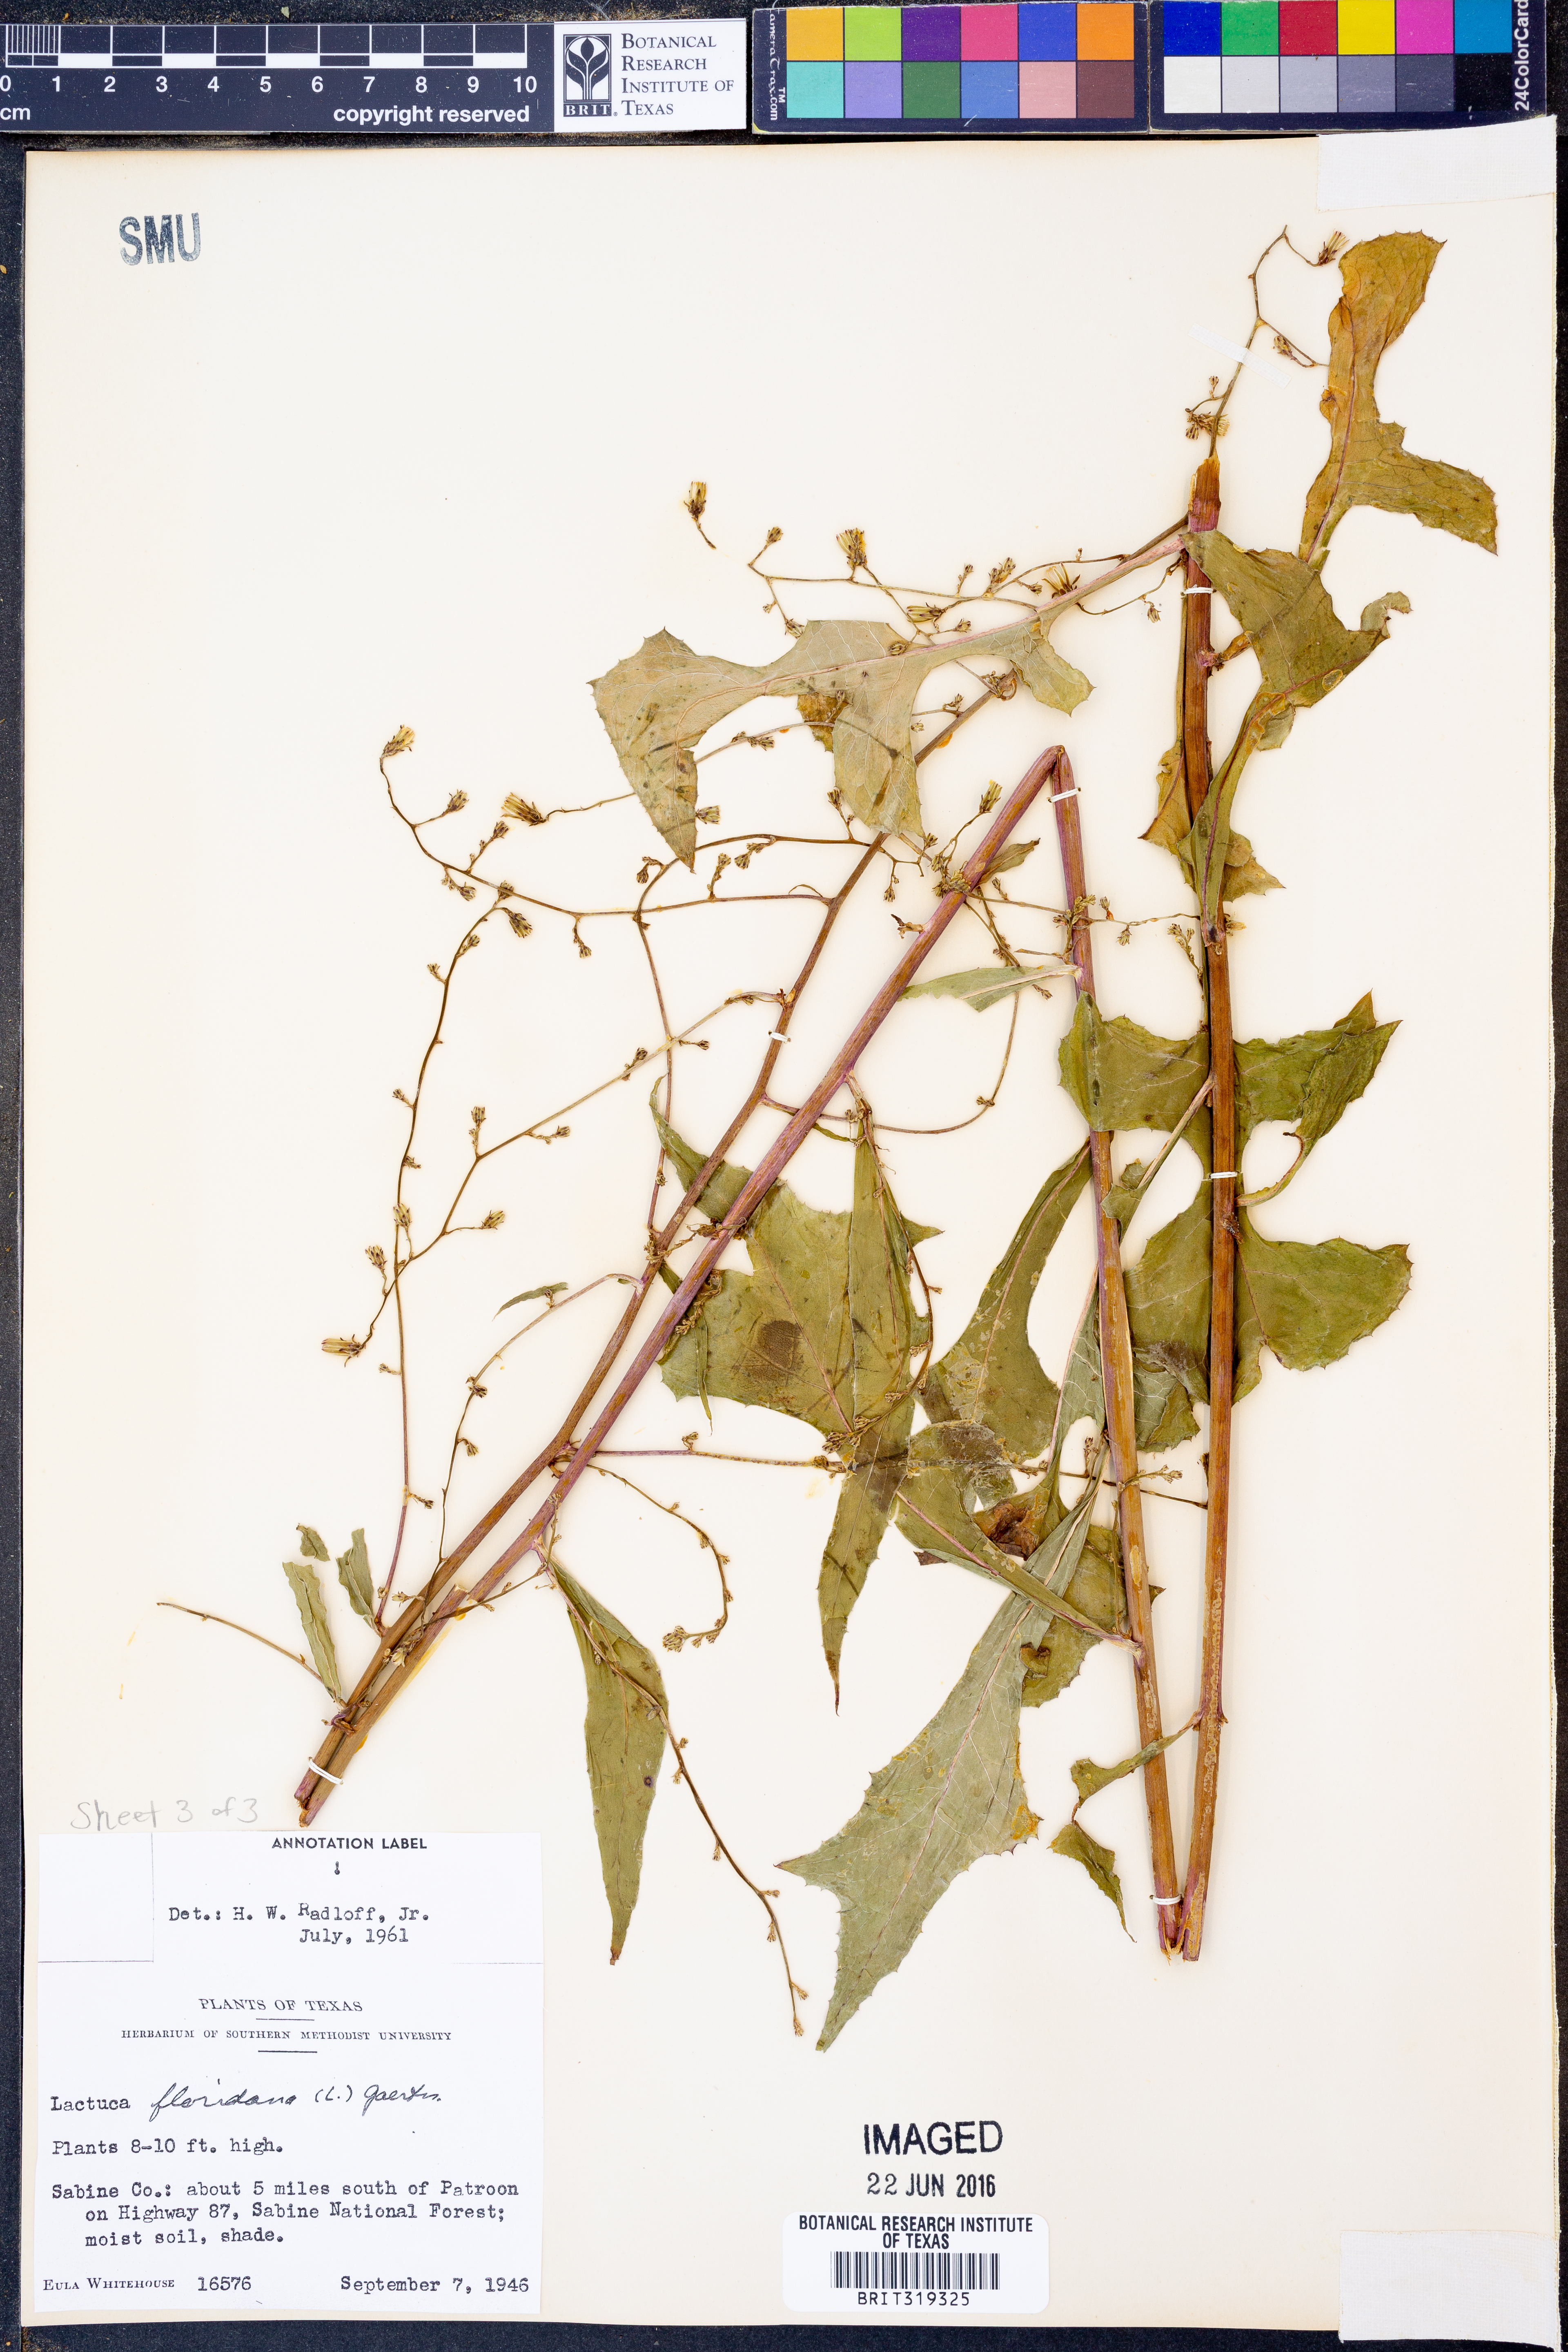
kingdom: Plantae
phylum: Tracheophyta
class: Magnoliopsida
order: Asterales
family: Asteraceae
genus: Lactuca
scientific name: Lactuca floridana
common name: Woodland lettuce
